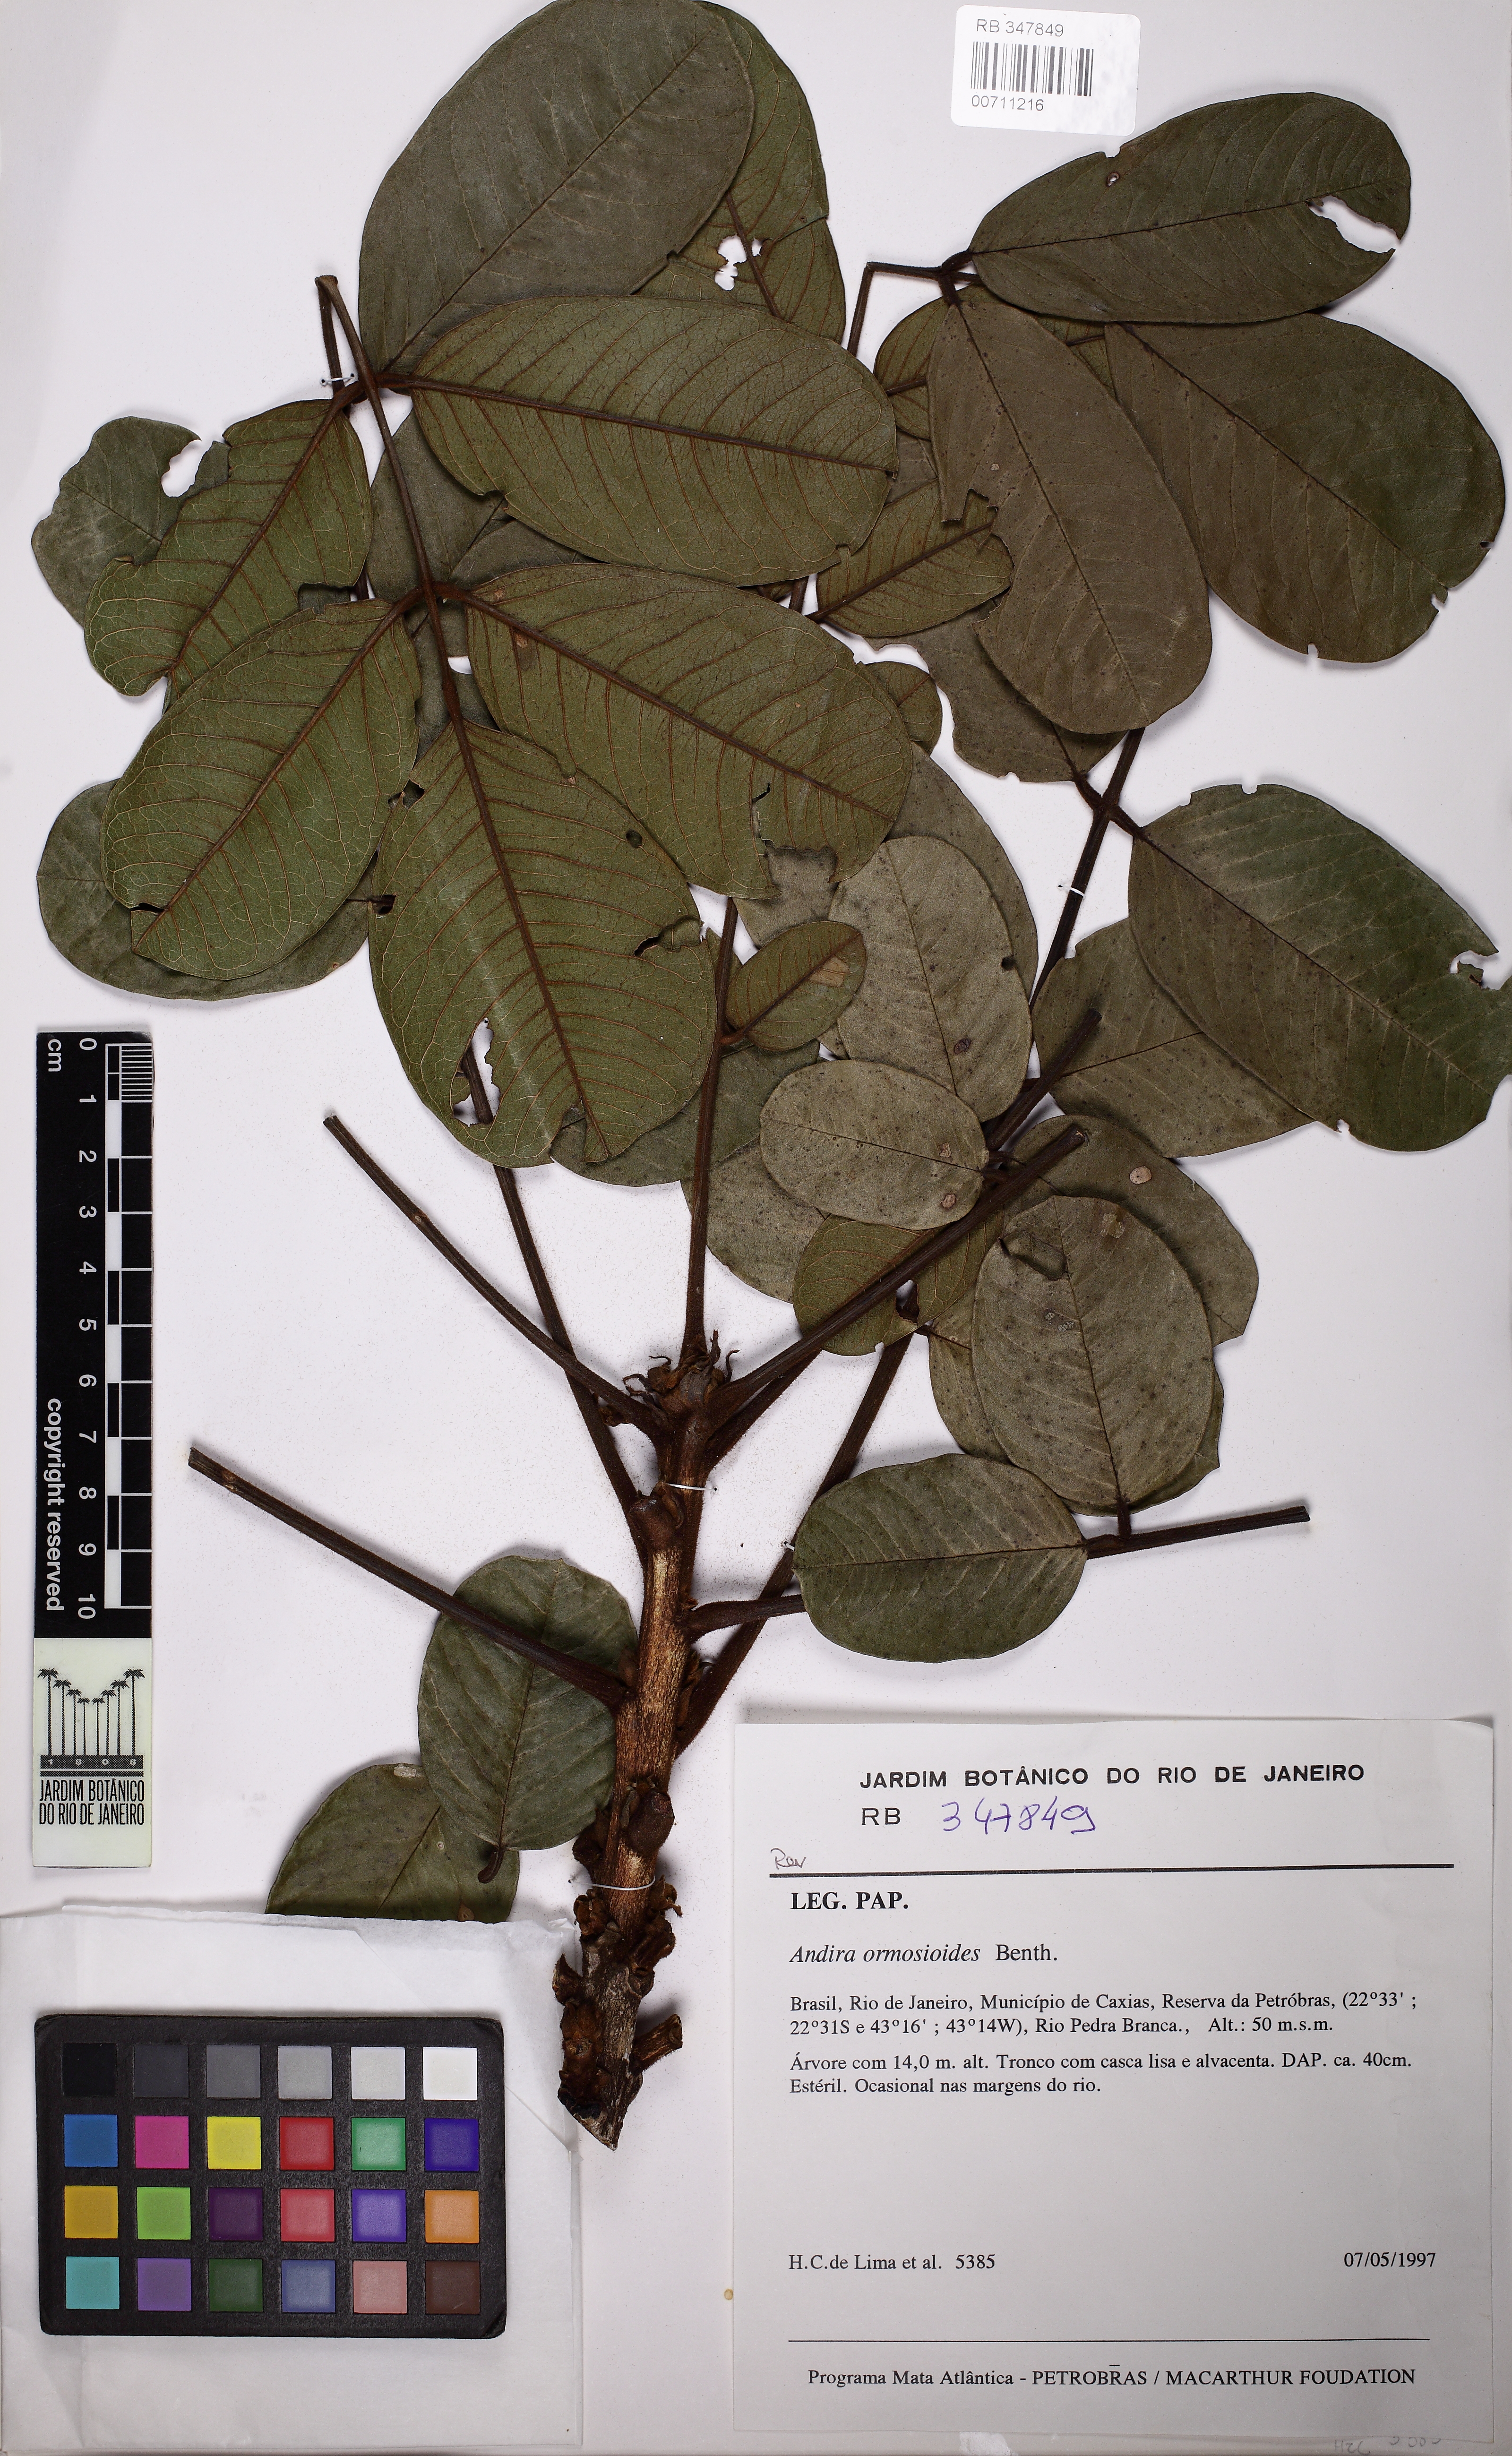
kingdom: Plantae
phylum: Tracheophyta
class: Magnoliopsida
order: Fabales
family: Fabaceae
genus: Andira
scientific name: Andira ormosioides
